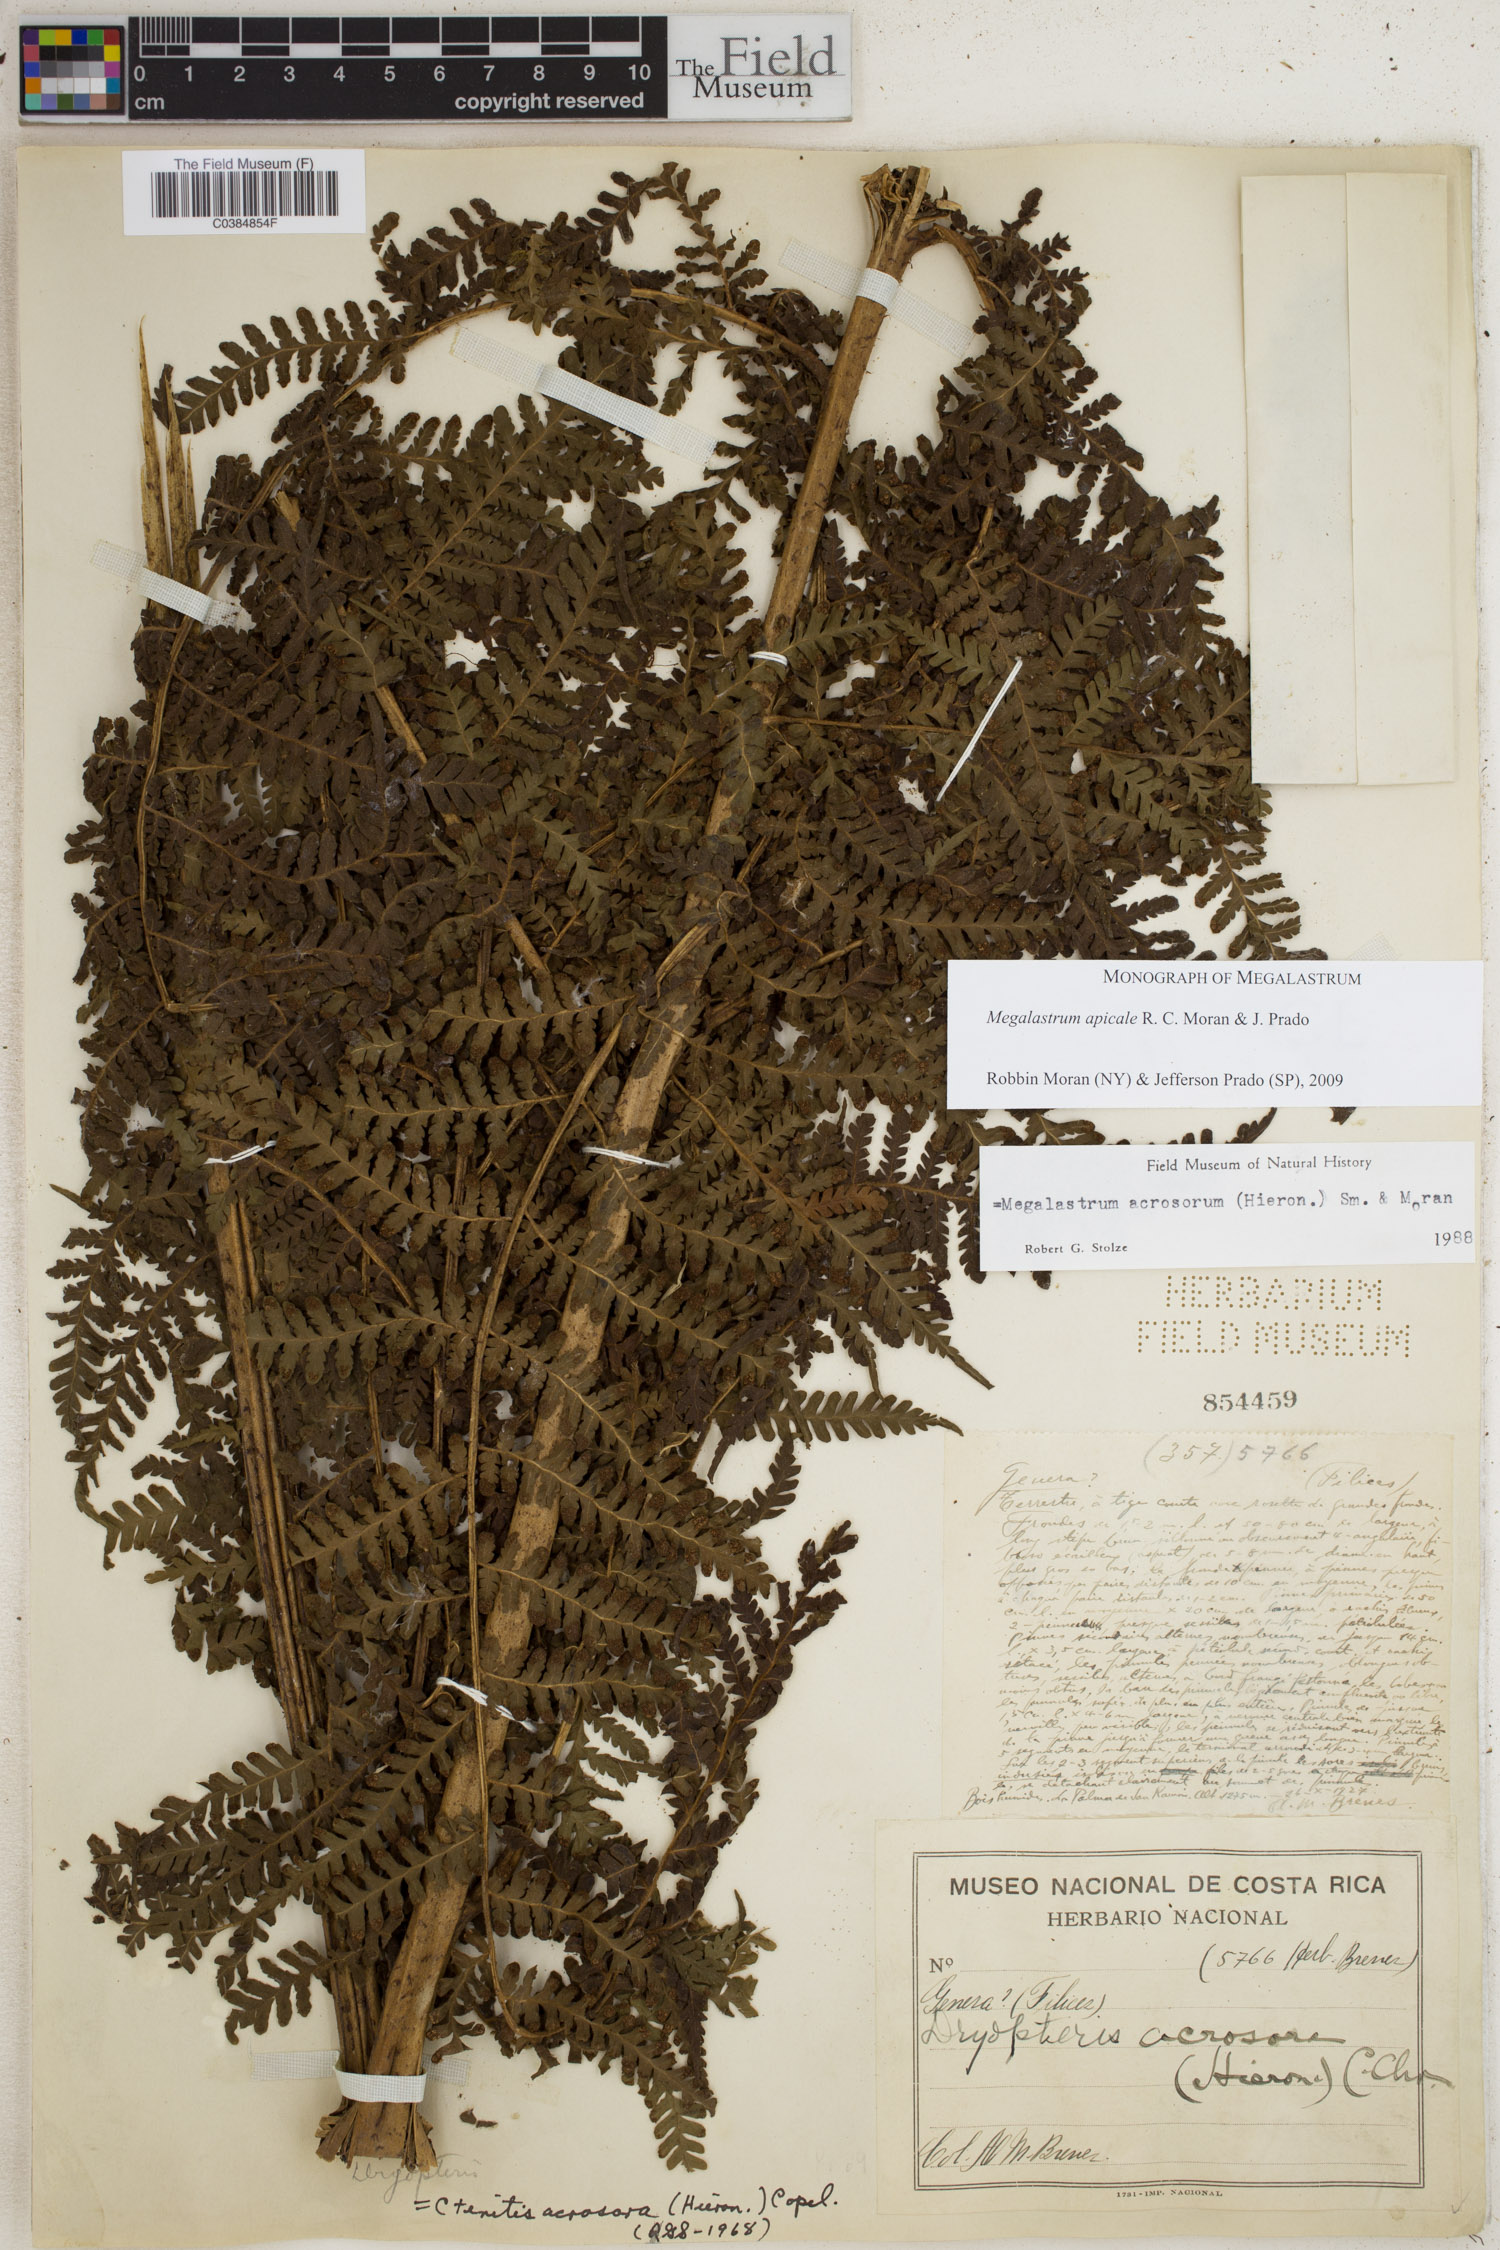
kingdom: Plantae
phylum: Tracheophyta
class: Polypodiopsida
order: Polypodiales
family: Dryopteridaceae
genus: Megalastrum
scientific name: Megalastrum apicale
